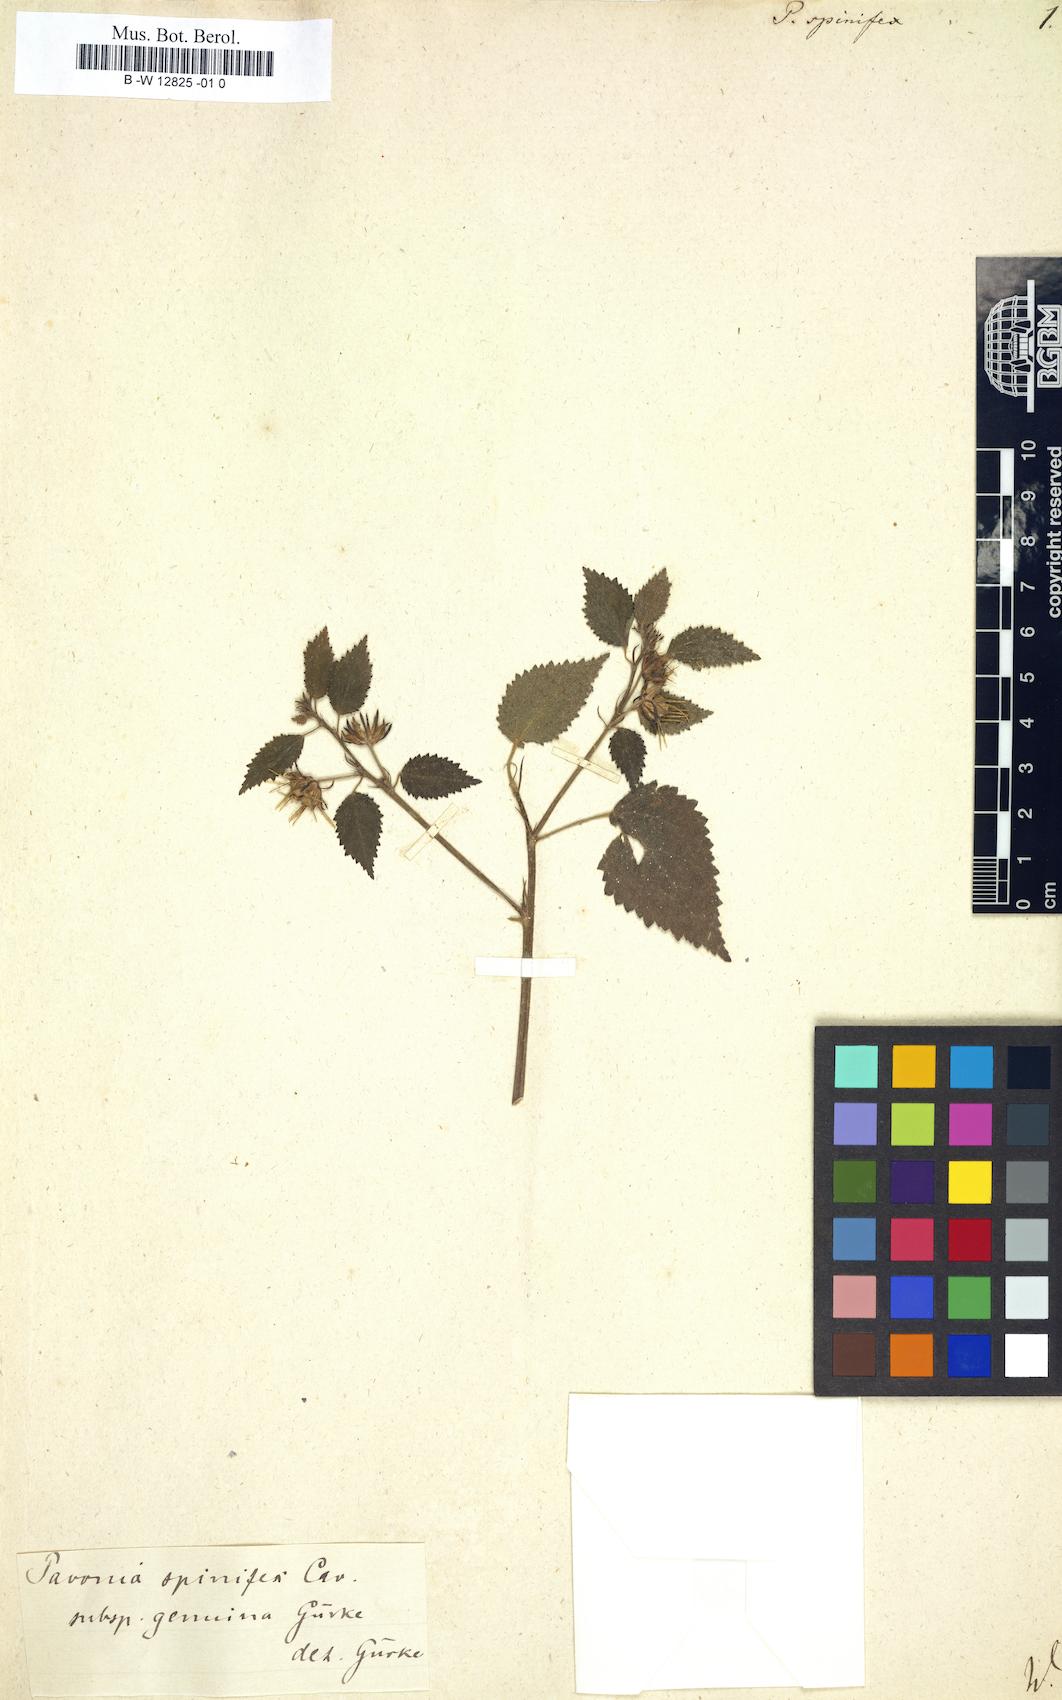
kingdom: Plantae
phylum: Tracheophyta
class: Magnoliopsida
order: Malvales
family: Malvaceae
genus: Pavonia
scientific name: Pavonia spinifex
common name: Ginger bush
